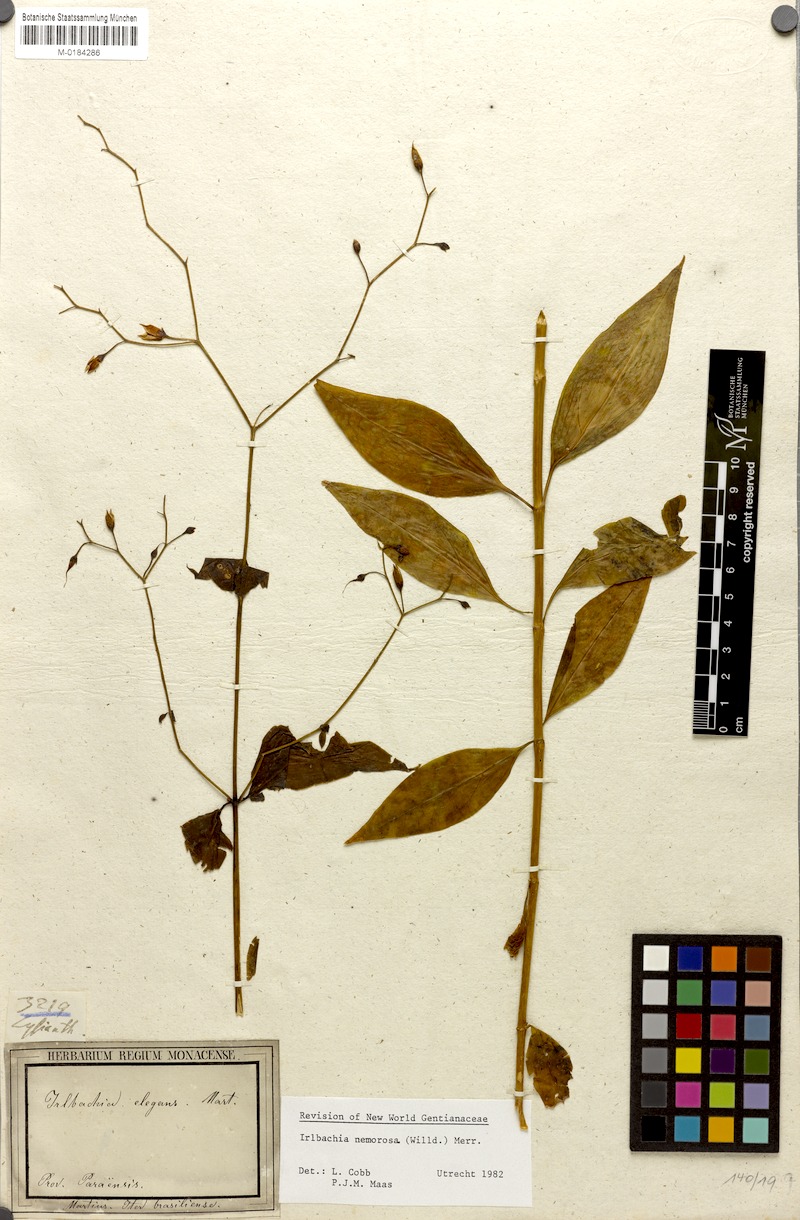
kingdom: Plantae
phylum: Tracheophyta
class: Magnoliopsida
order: Gentianales
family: Gentianaceae
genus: Irlbachia
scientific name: Irlbachia nemorosa
